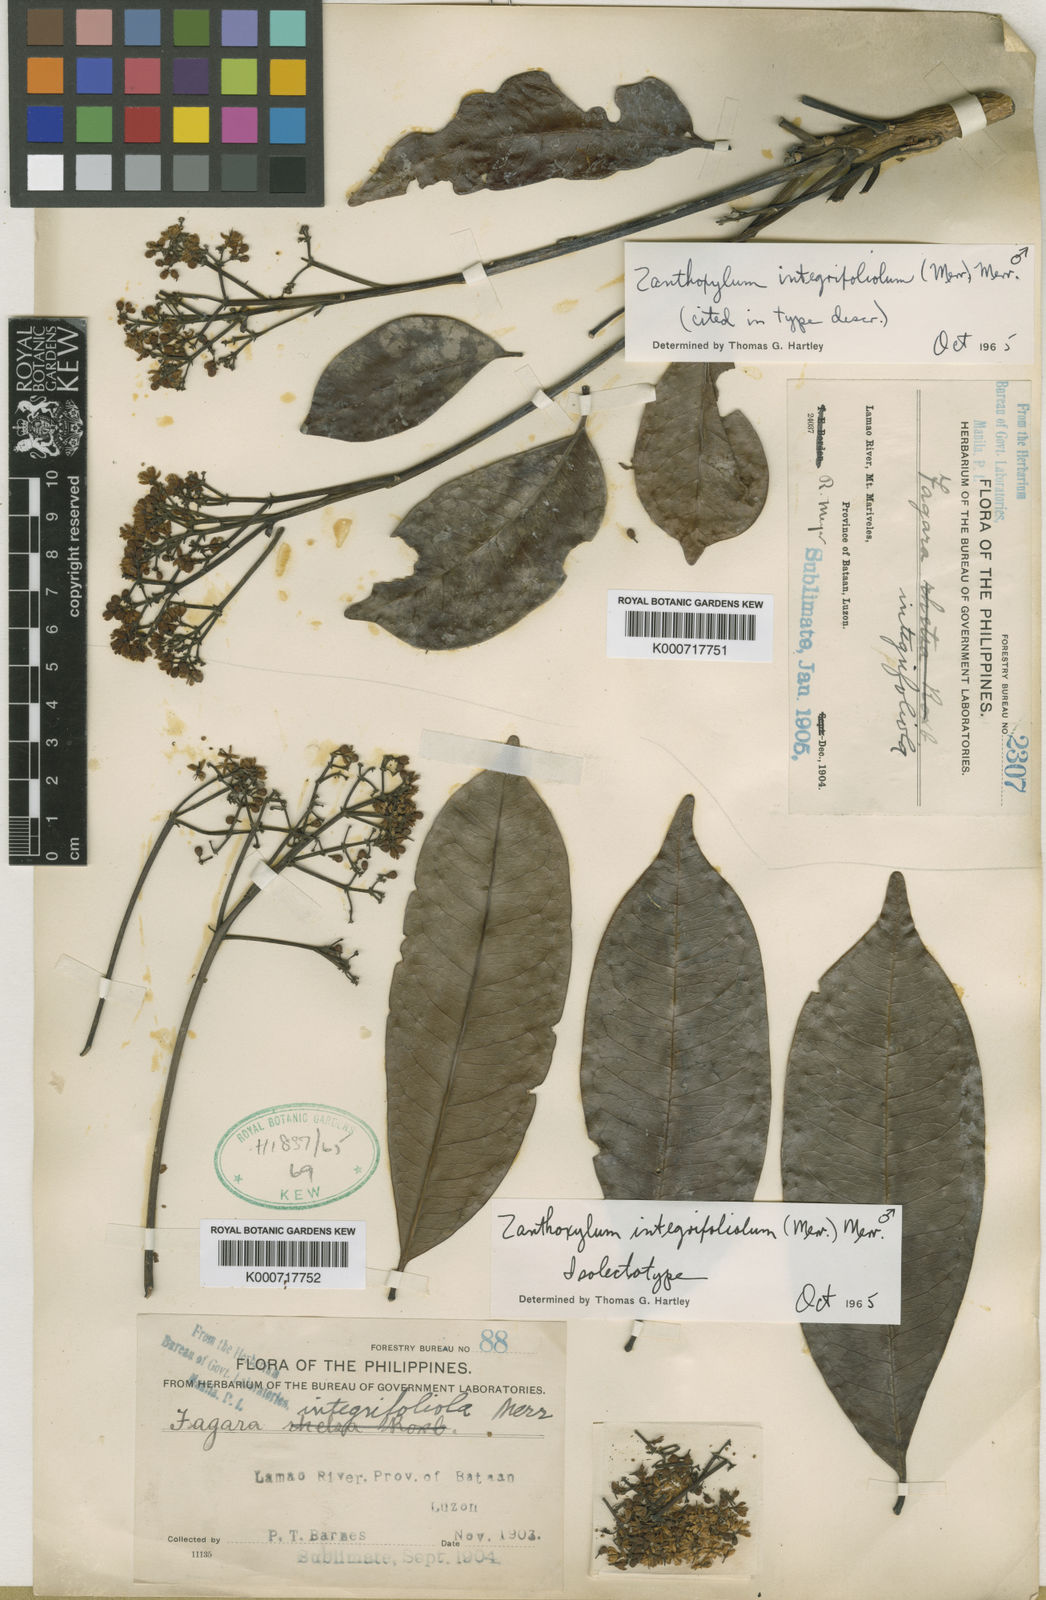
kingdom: Plantae
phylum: Tracheophyta
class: Magnoliopsida
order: Sapindales
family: Rutaceae
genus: Zanthoxylum
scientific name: Zanthoxylum integrifoliolum
